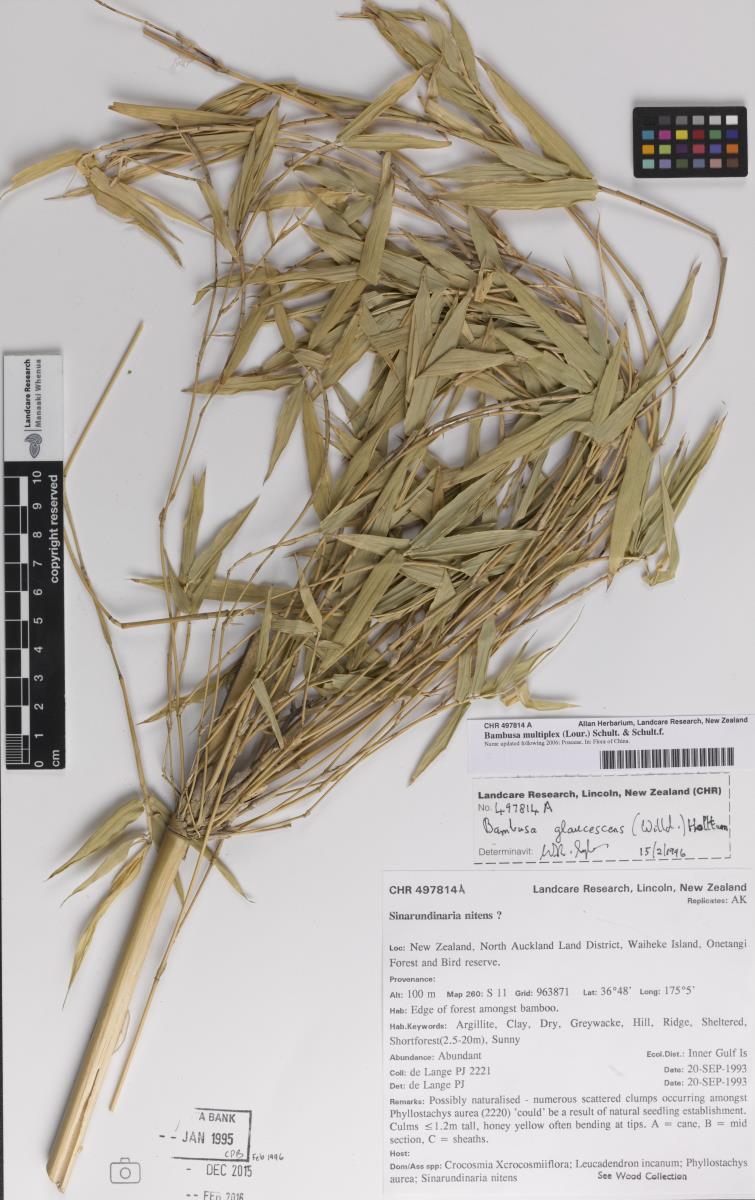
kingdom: Plantae
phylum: Tracheophyta
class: Liliopsida
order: Poales
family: Poaceae
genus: Bambusa
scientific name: Bambusa multiplex
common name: Hedge bamboo
